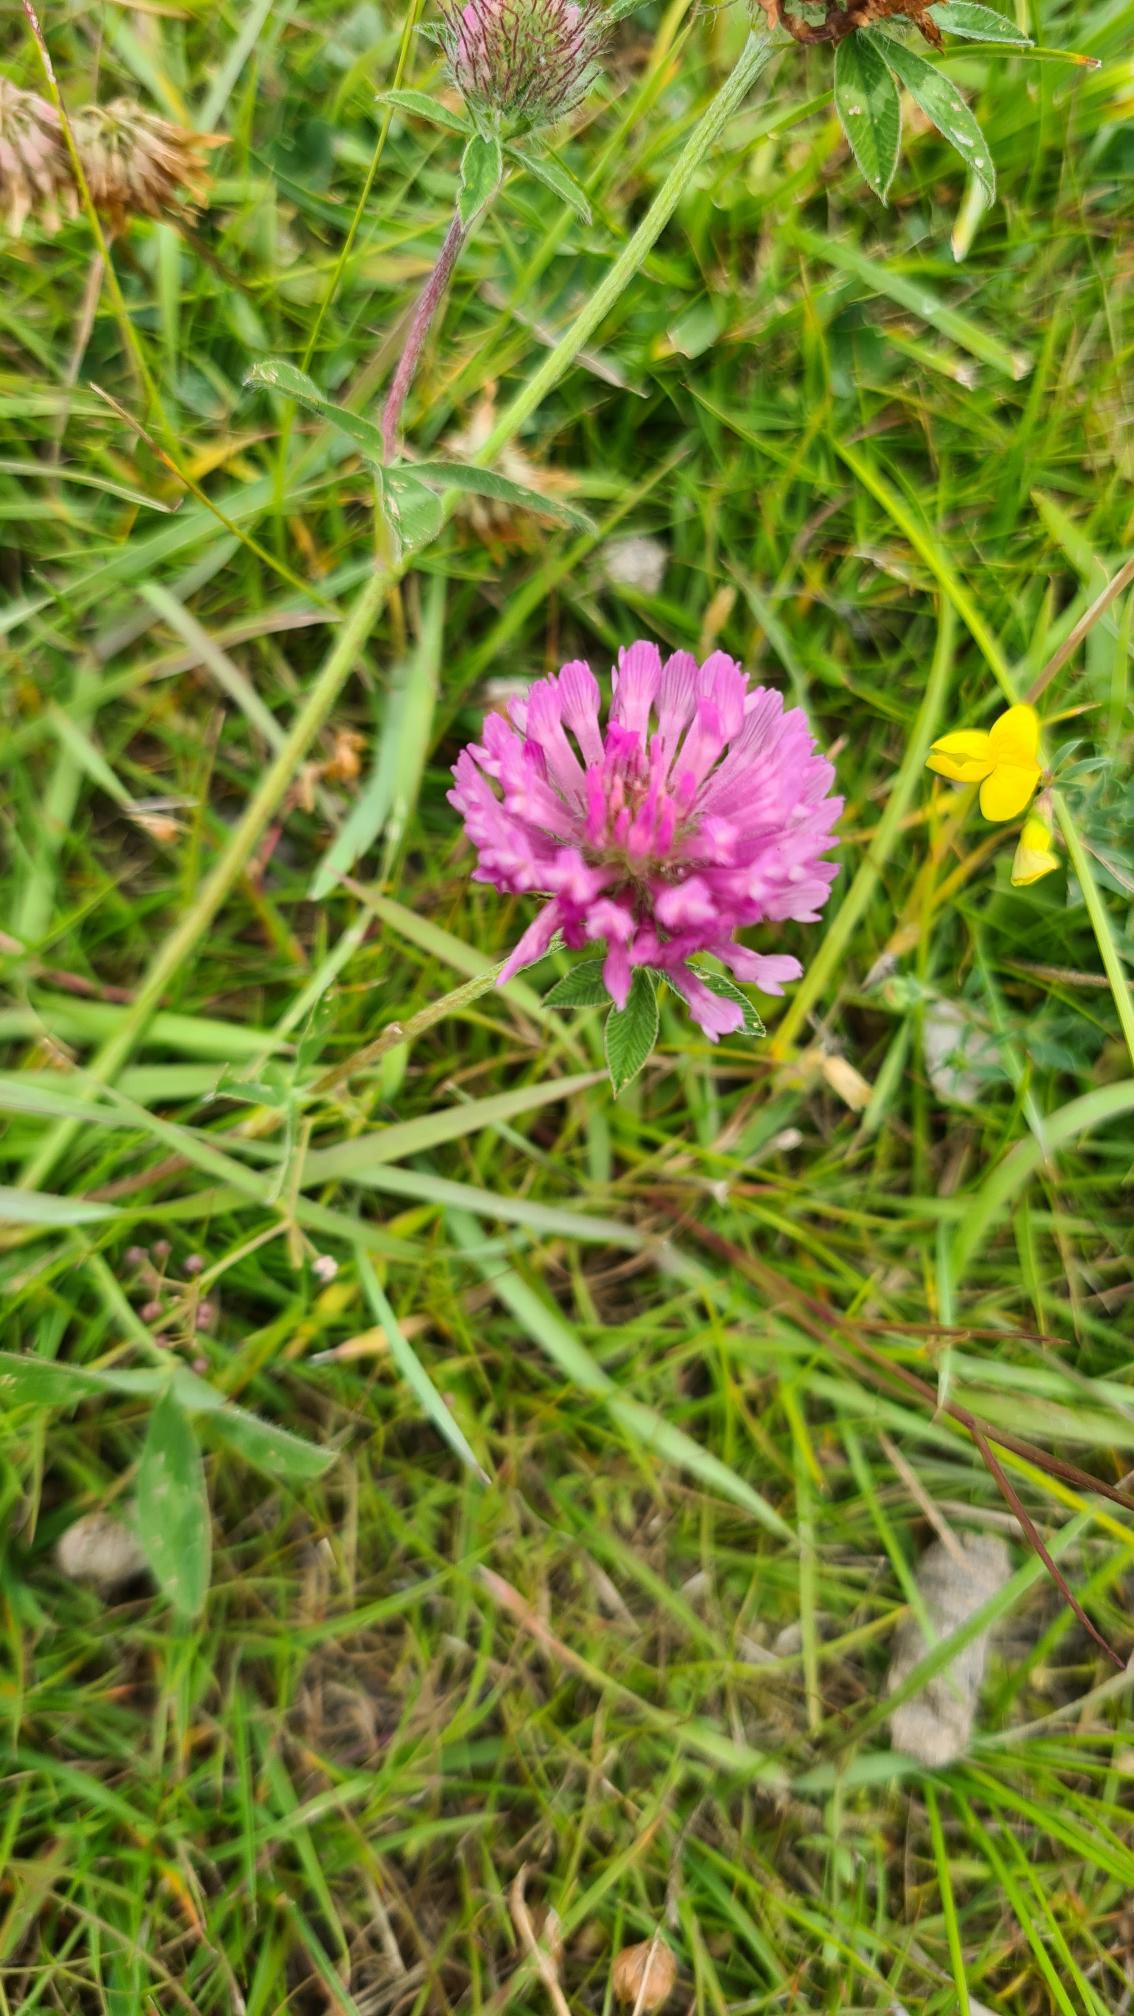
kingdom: Plantae
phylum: Tracheophyta
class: Magnoliopsida
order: Fabales
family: Fabaceae
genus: Trifolium
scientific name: Trifolium pratense
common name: Rød-kløver
